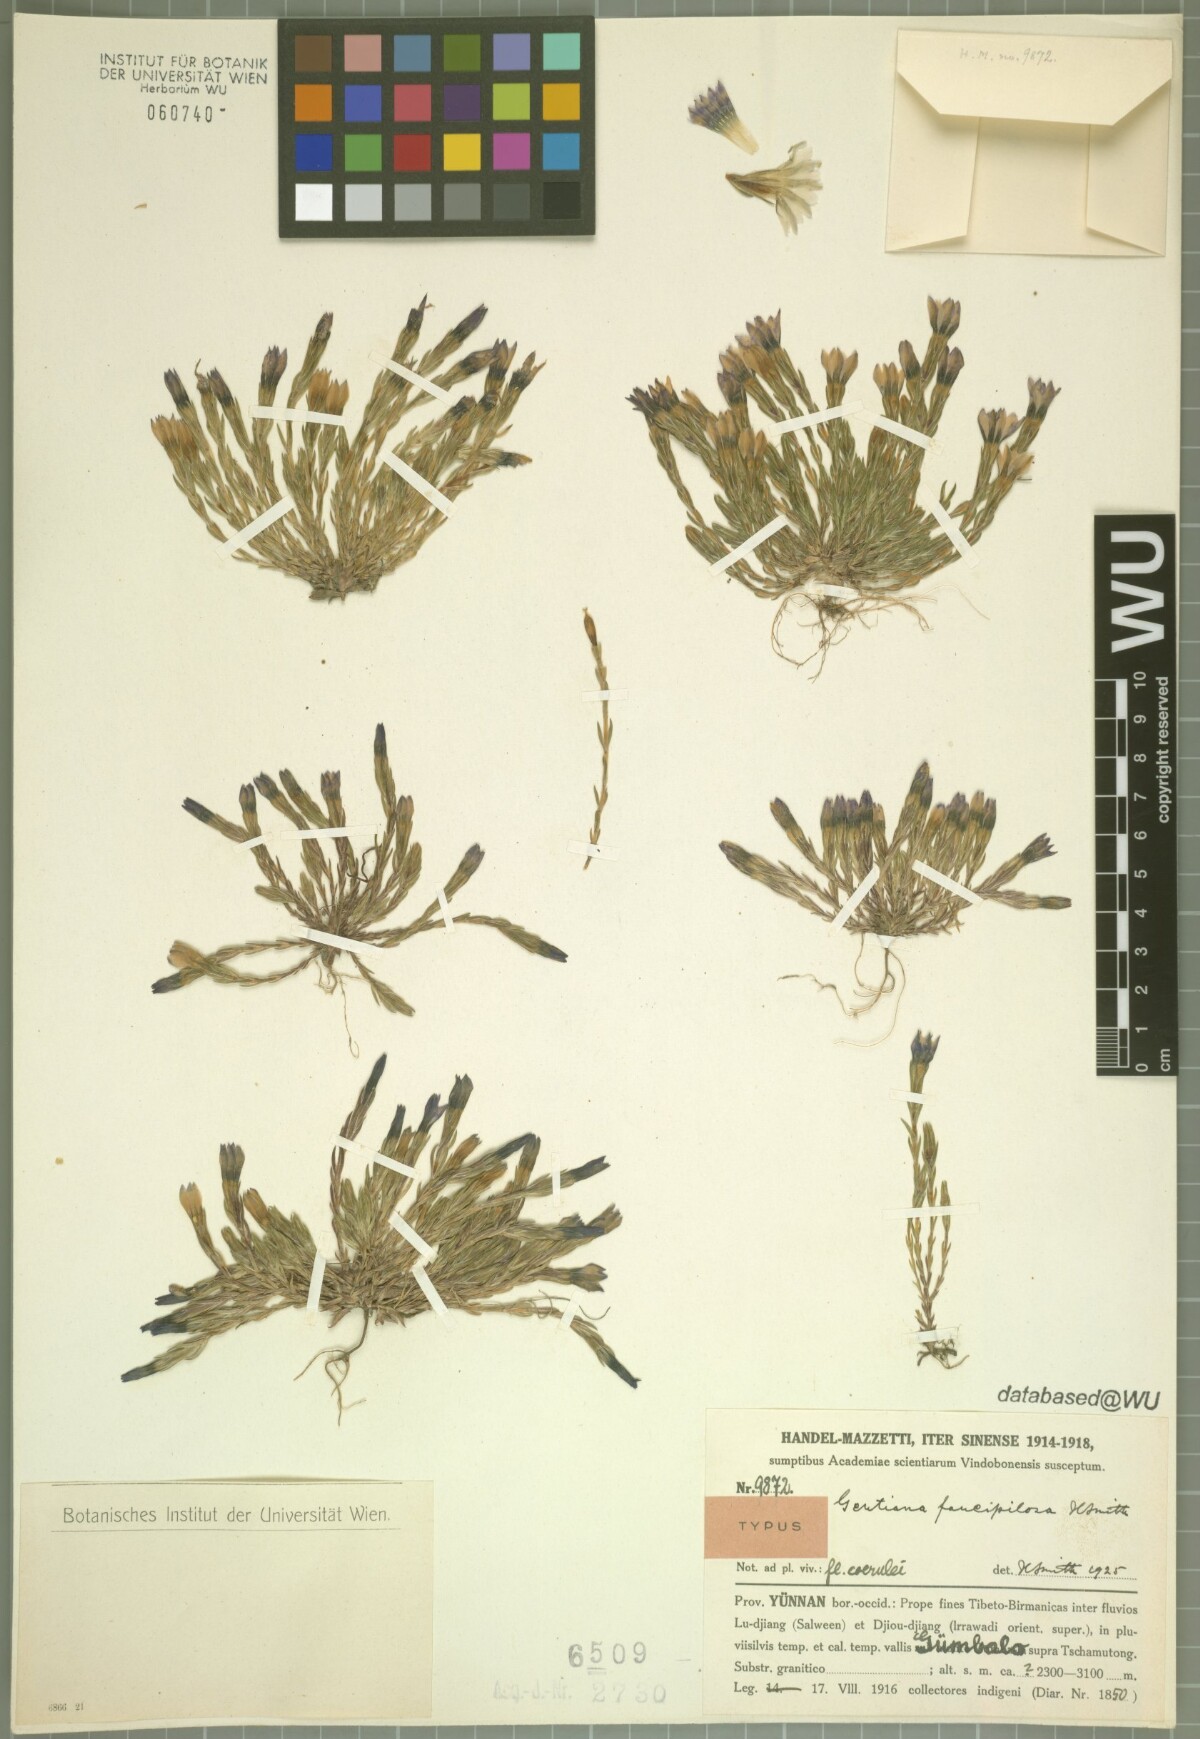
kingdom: Plantae
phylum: Tracheophyta
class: Magnoliopsida
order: Gentianales
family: Gentianaceae
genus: Gentiana
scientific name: Gentiana faucipilosa
